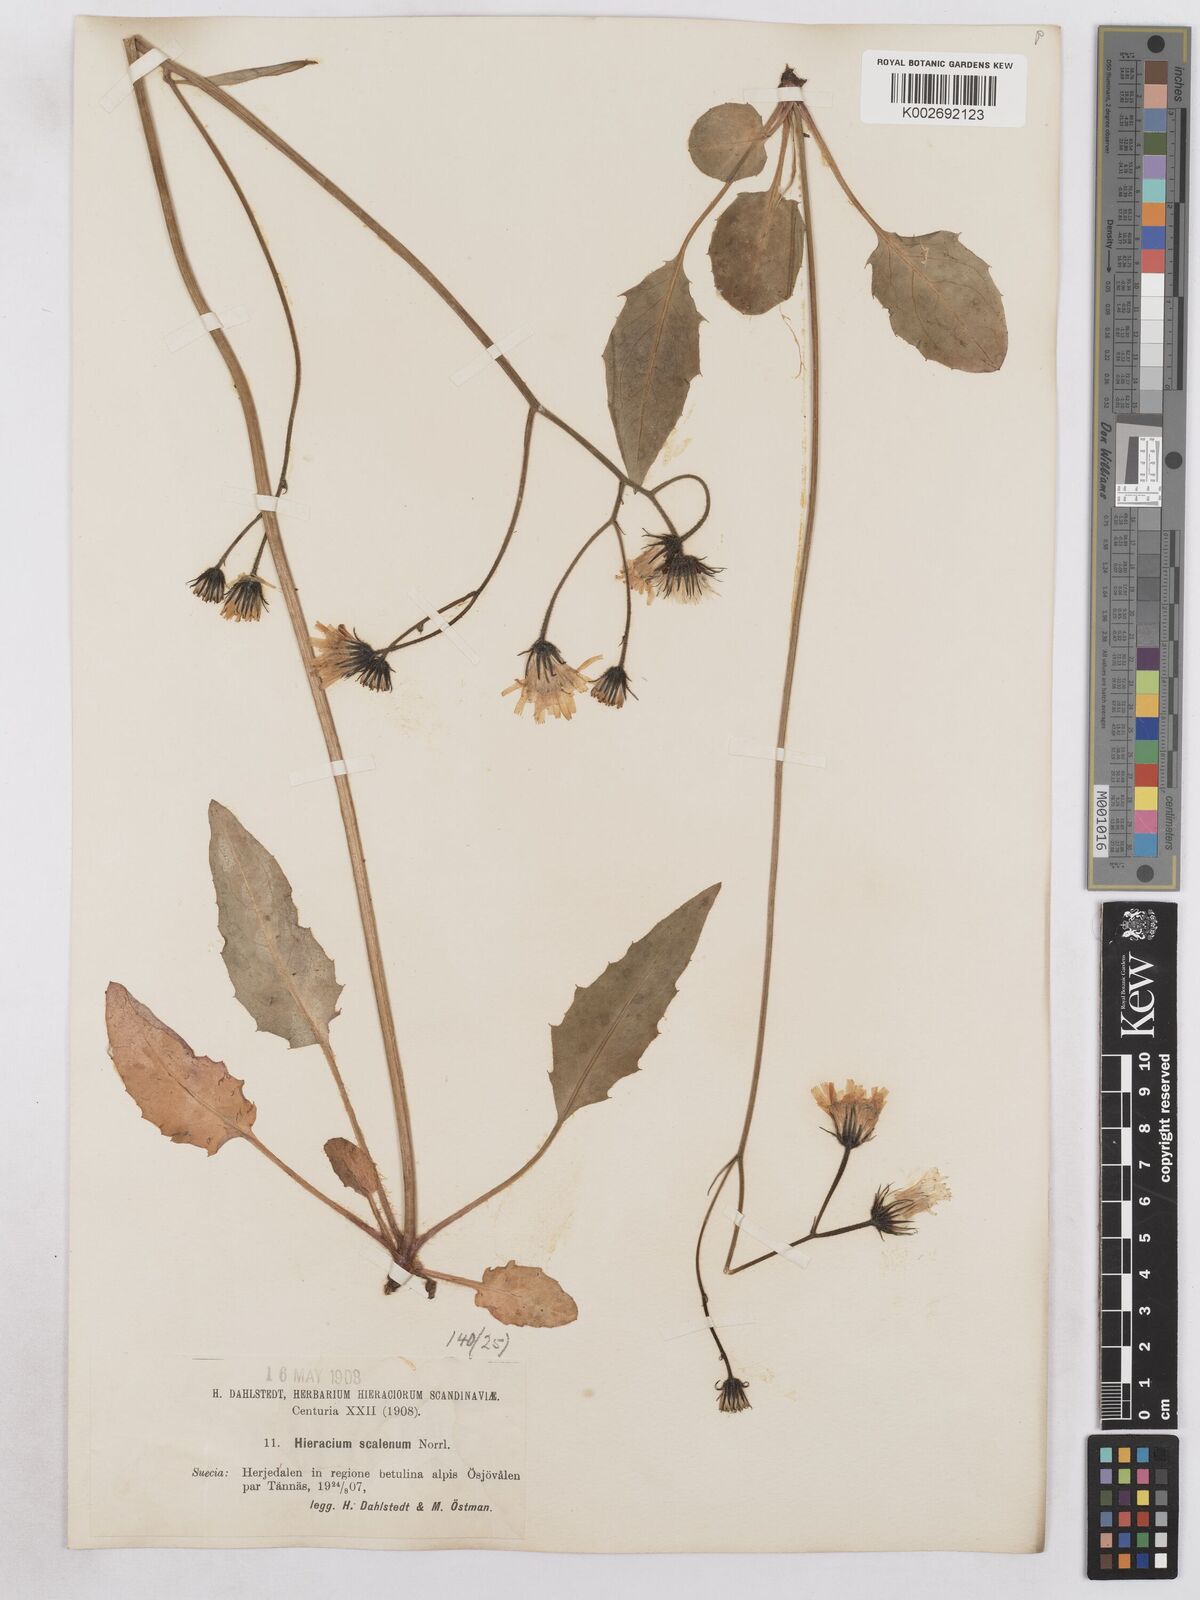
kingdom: Plantae
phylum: Tracheophyta
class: Magnoliopsida
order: Asterales
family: Asteraceae
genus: Hieracium
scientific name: Hieracium fuscocinereum
